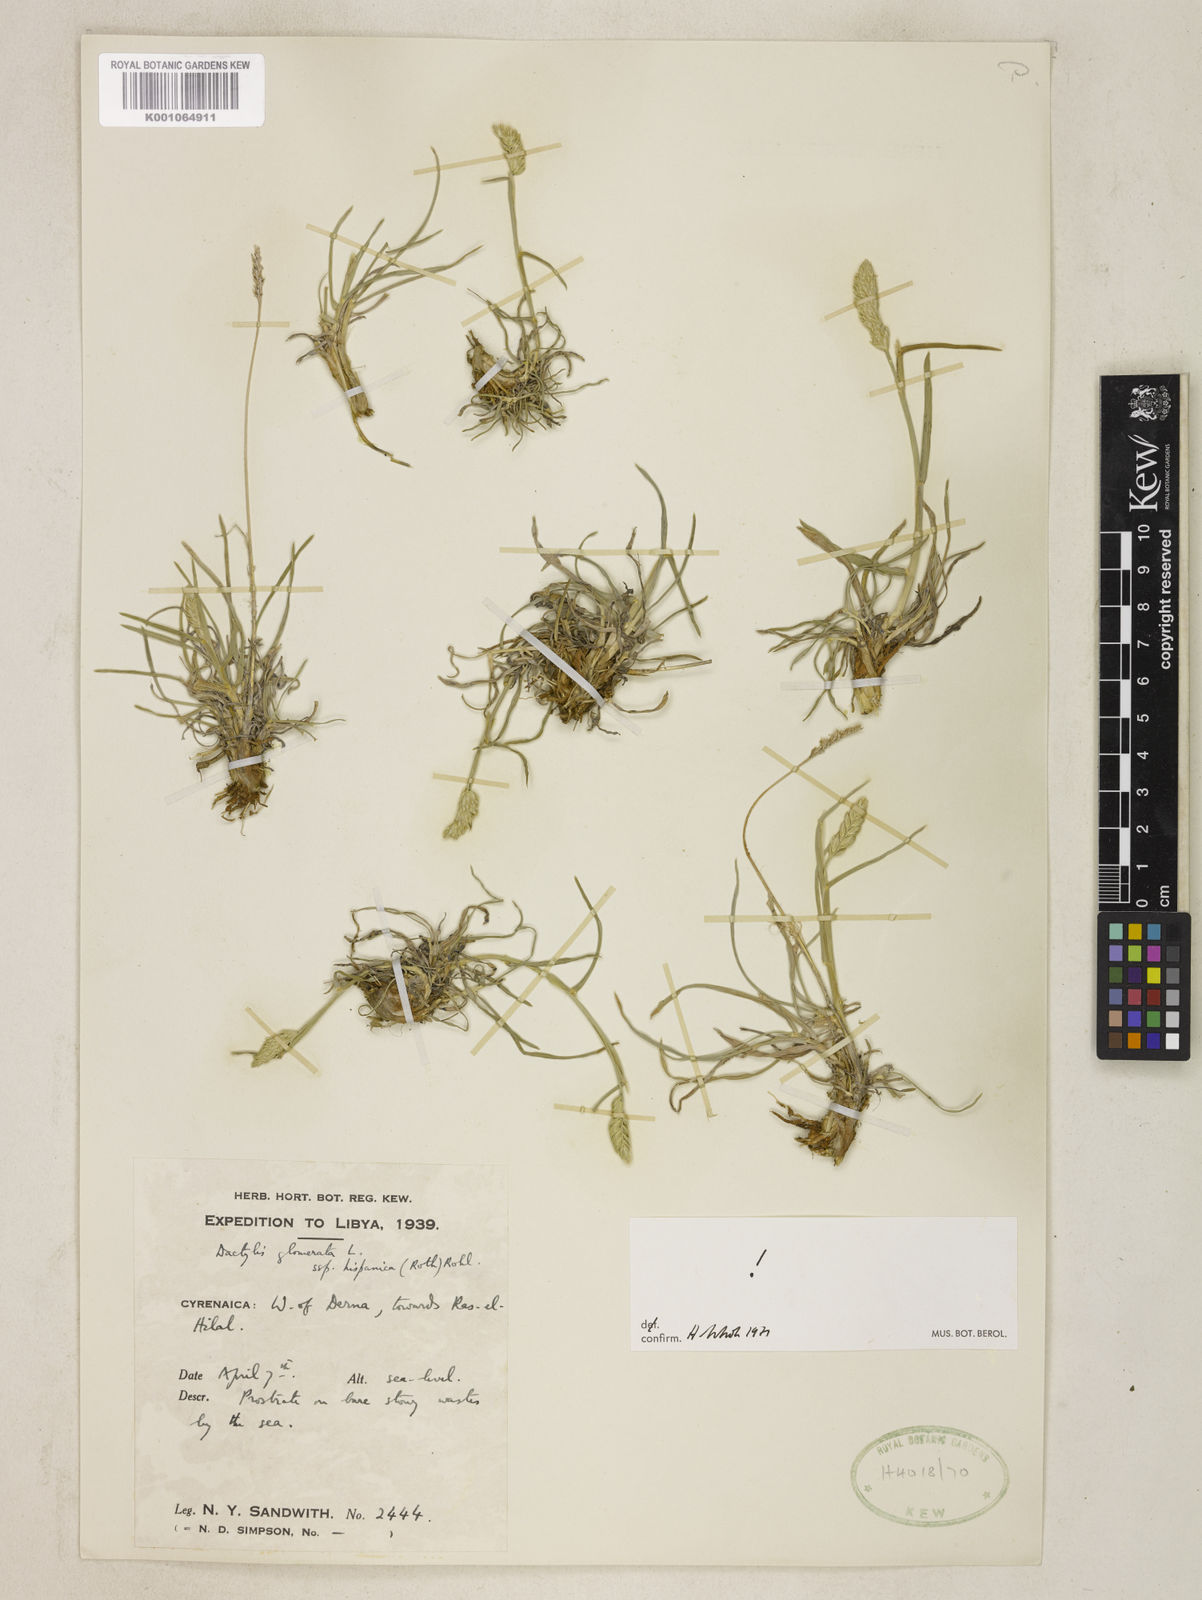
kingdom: Plantae
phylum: Tracheophyta
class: Liliopsida
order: Poales
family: Poaceae
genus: Dactylis
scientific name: Dactylis glomerata
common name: Orchardgrass
